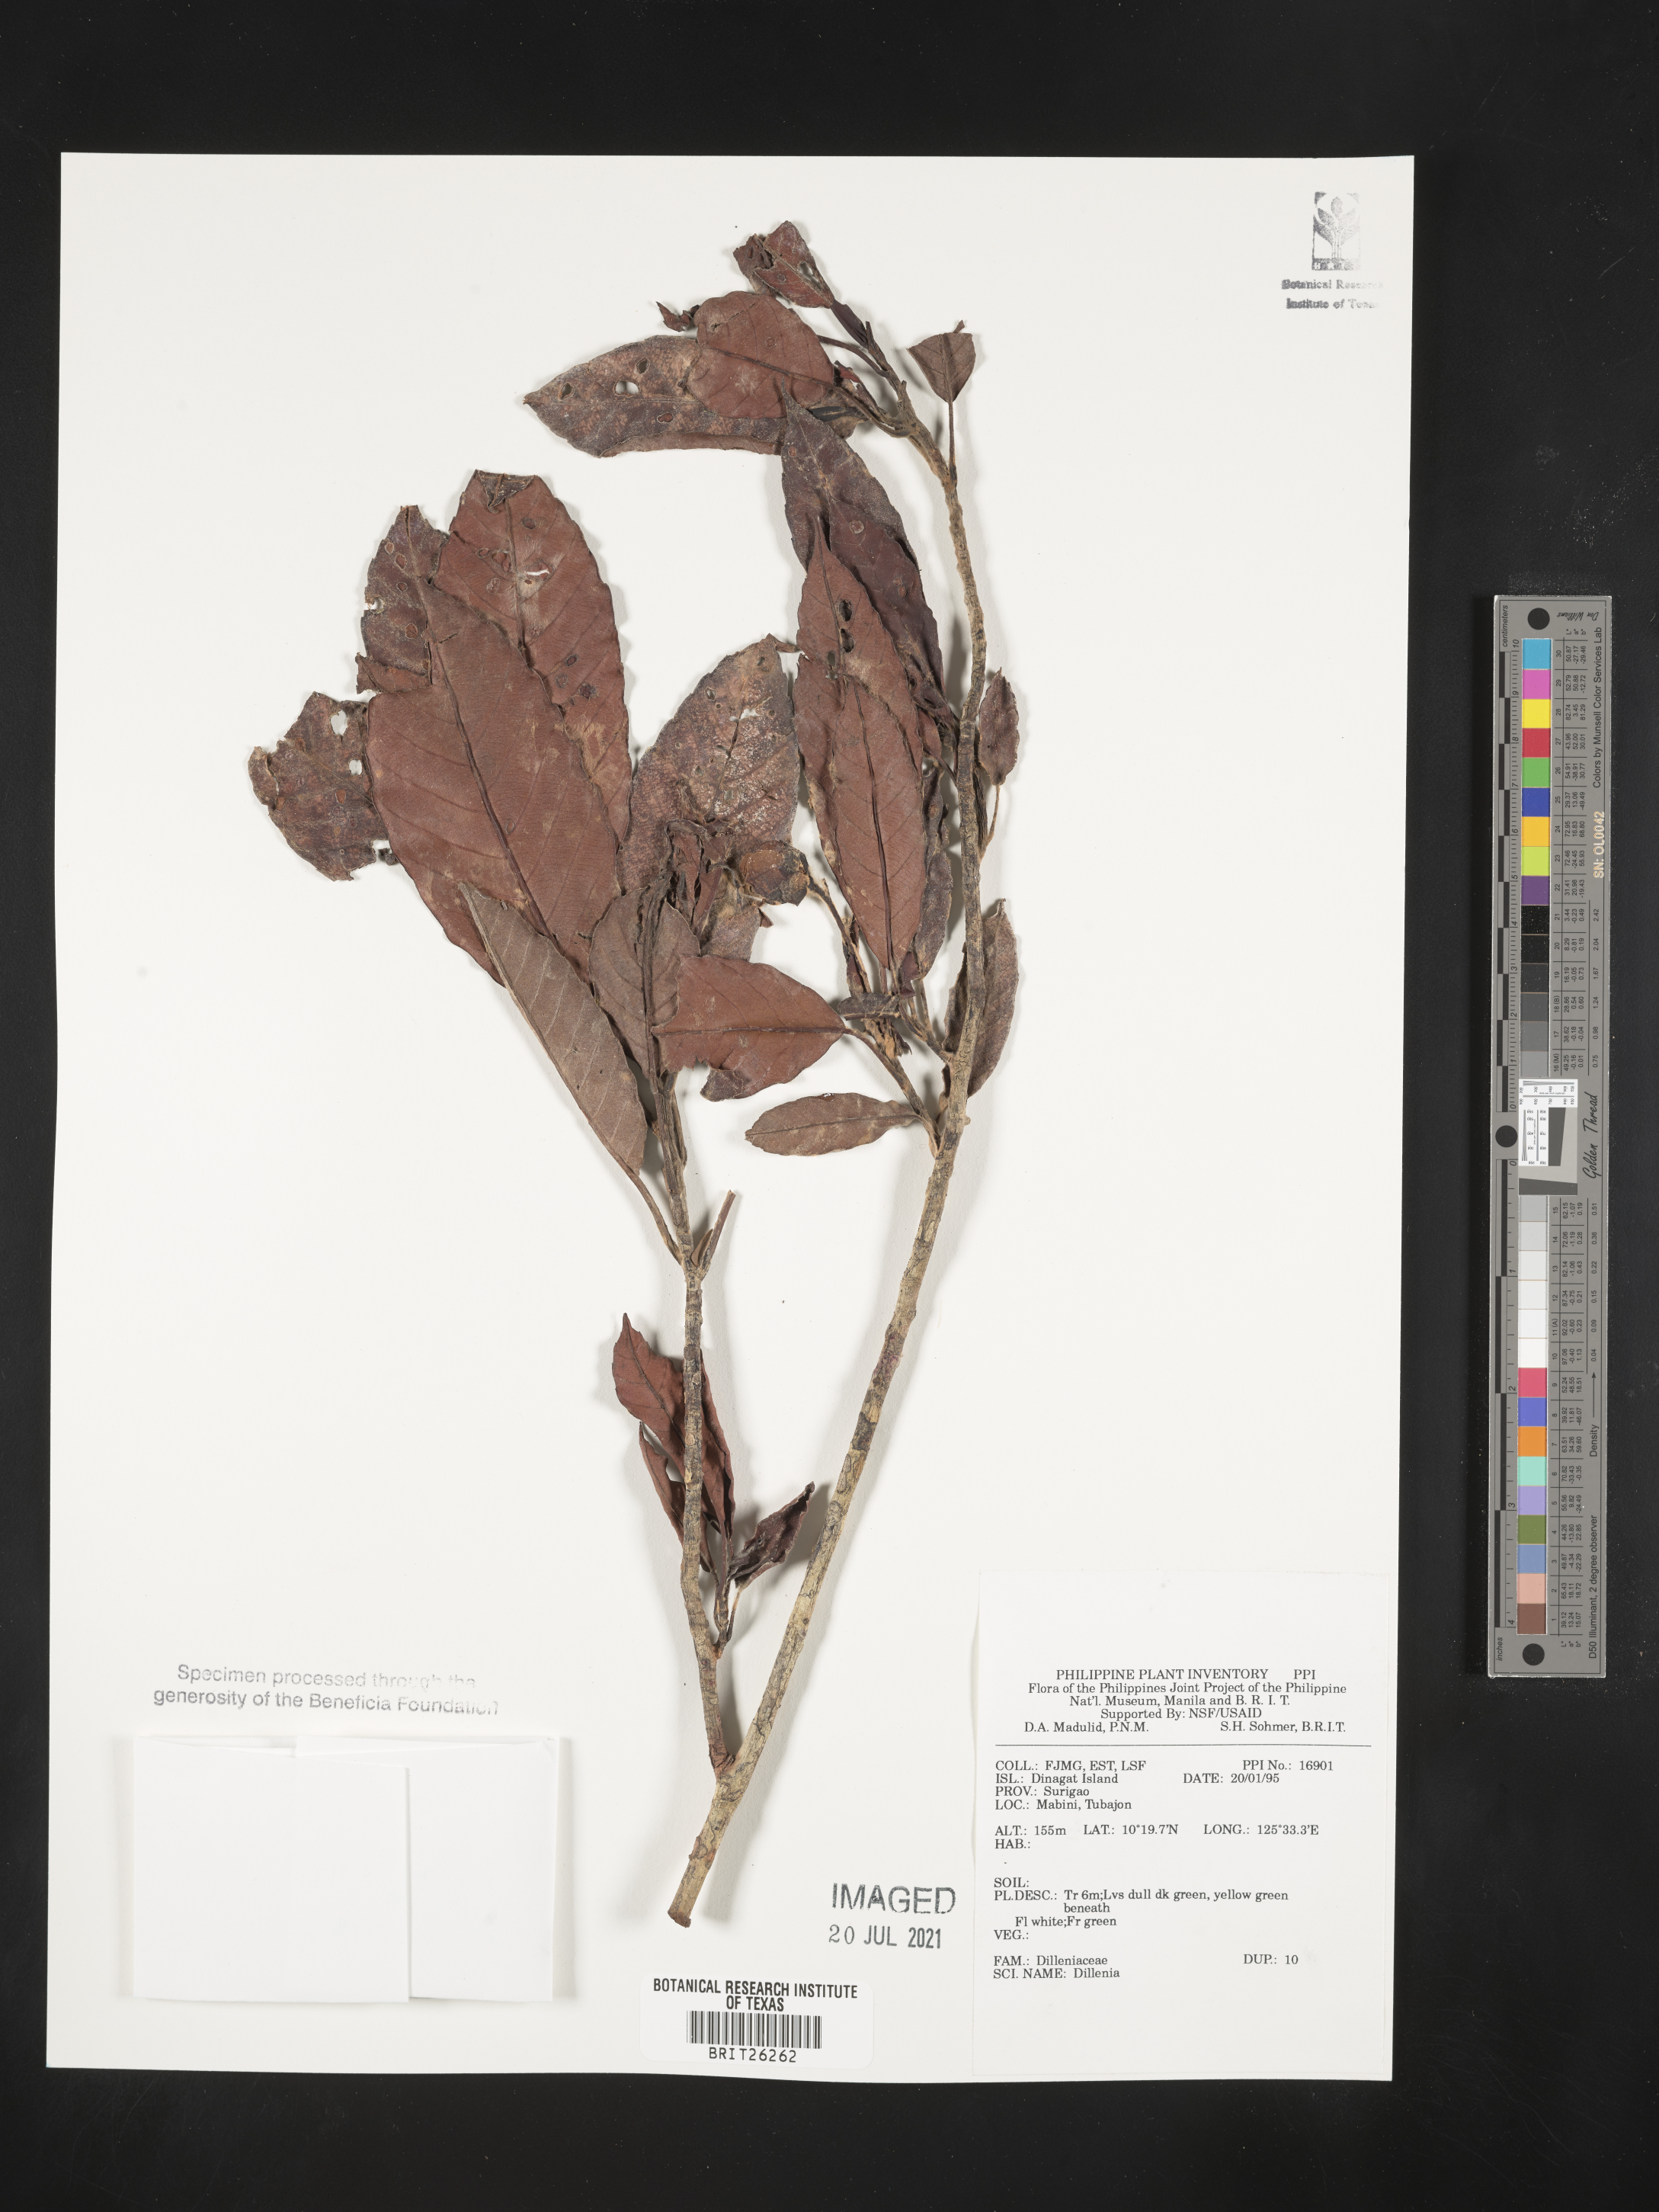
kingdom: Plantae
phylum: Tracheophyta
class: Magnoliopsida
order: Dilleniales
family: Dilleniaceae
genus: Dillenia
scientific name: Dillenia
